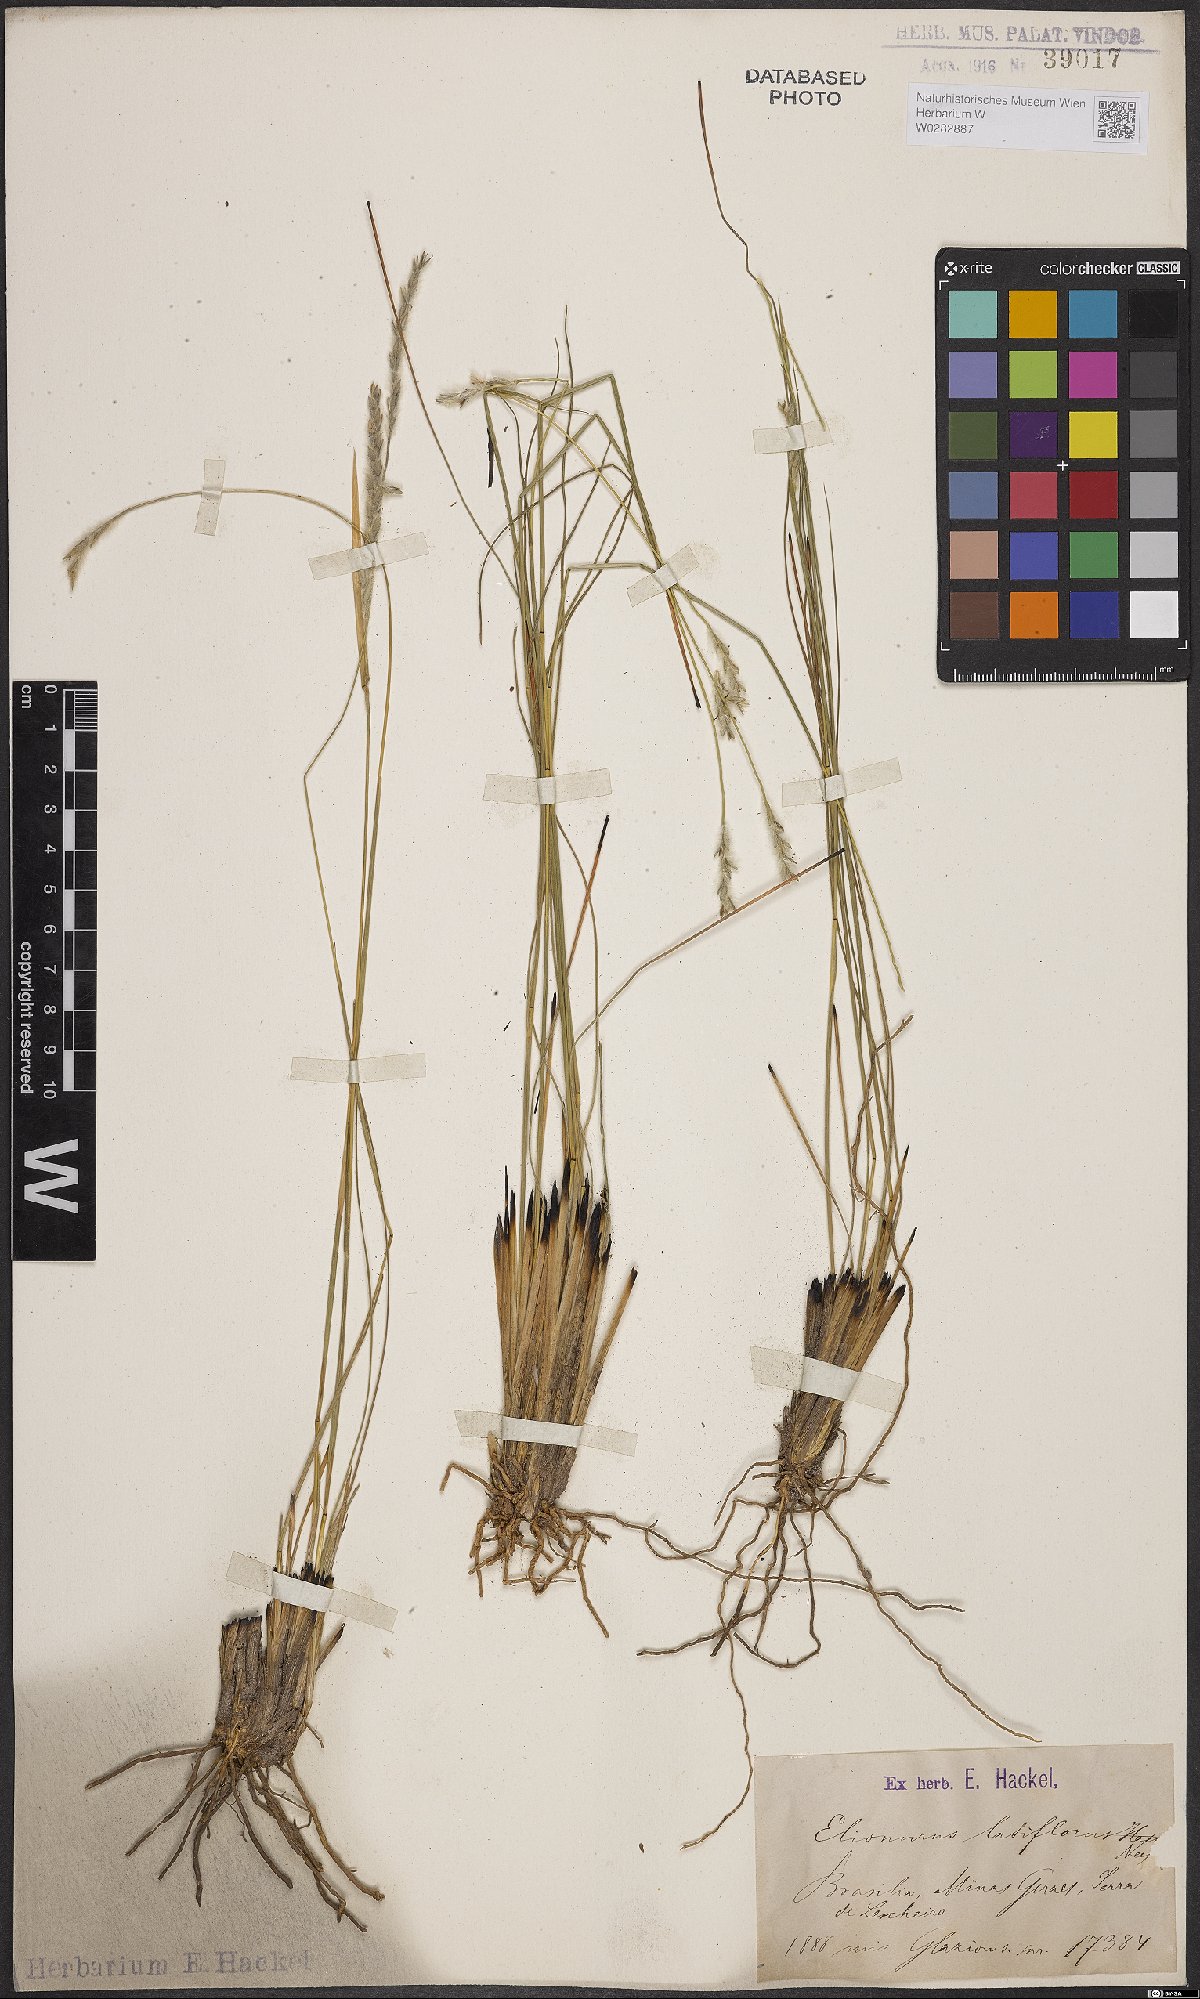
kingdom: Plantae
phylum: Tracheophyta
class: Liliopsida
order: Poales
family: Poaceae
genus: Elionurus
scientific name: Elionurus muticus
